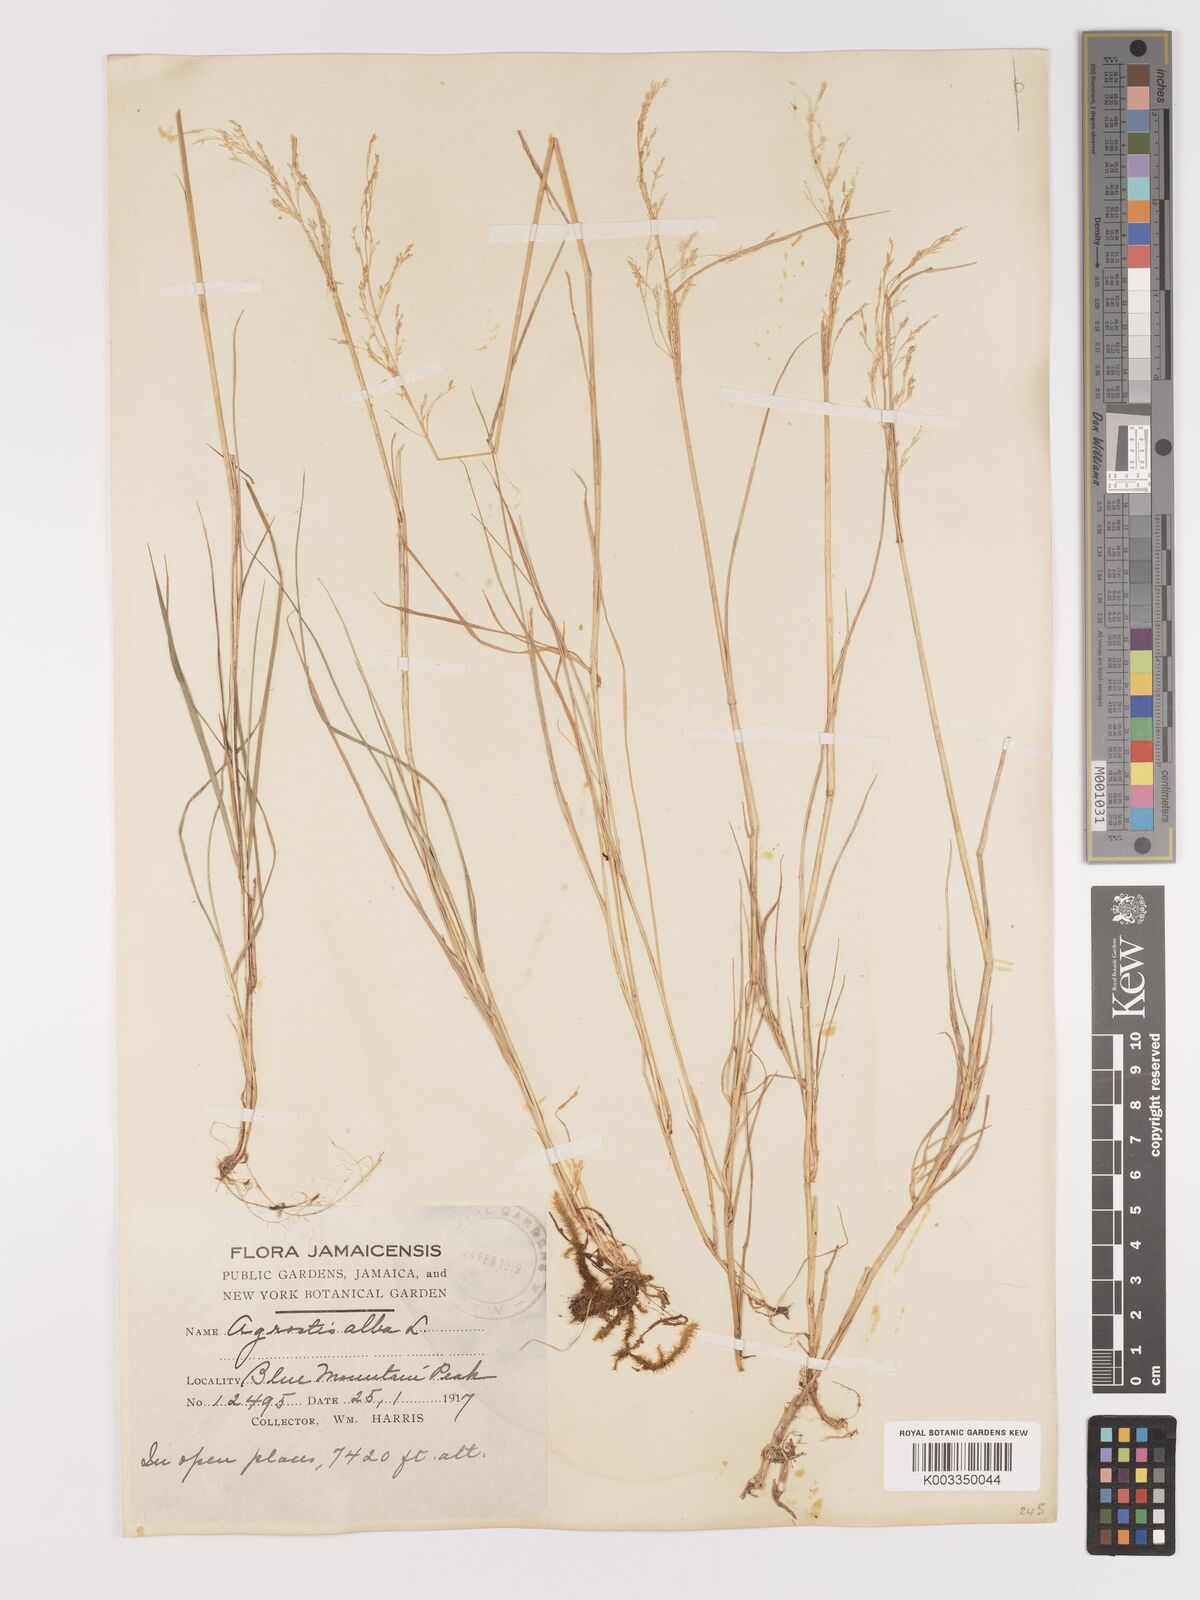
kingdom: Plantae
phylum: Tracheophyta
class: Liliopsida
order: Poales
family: Poaceae
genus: Agrostis
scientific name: Agrostis gigantea
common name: Black bent
